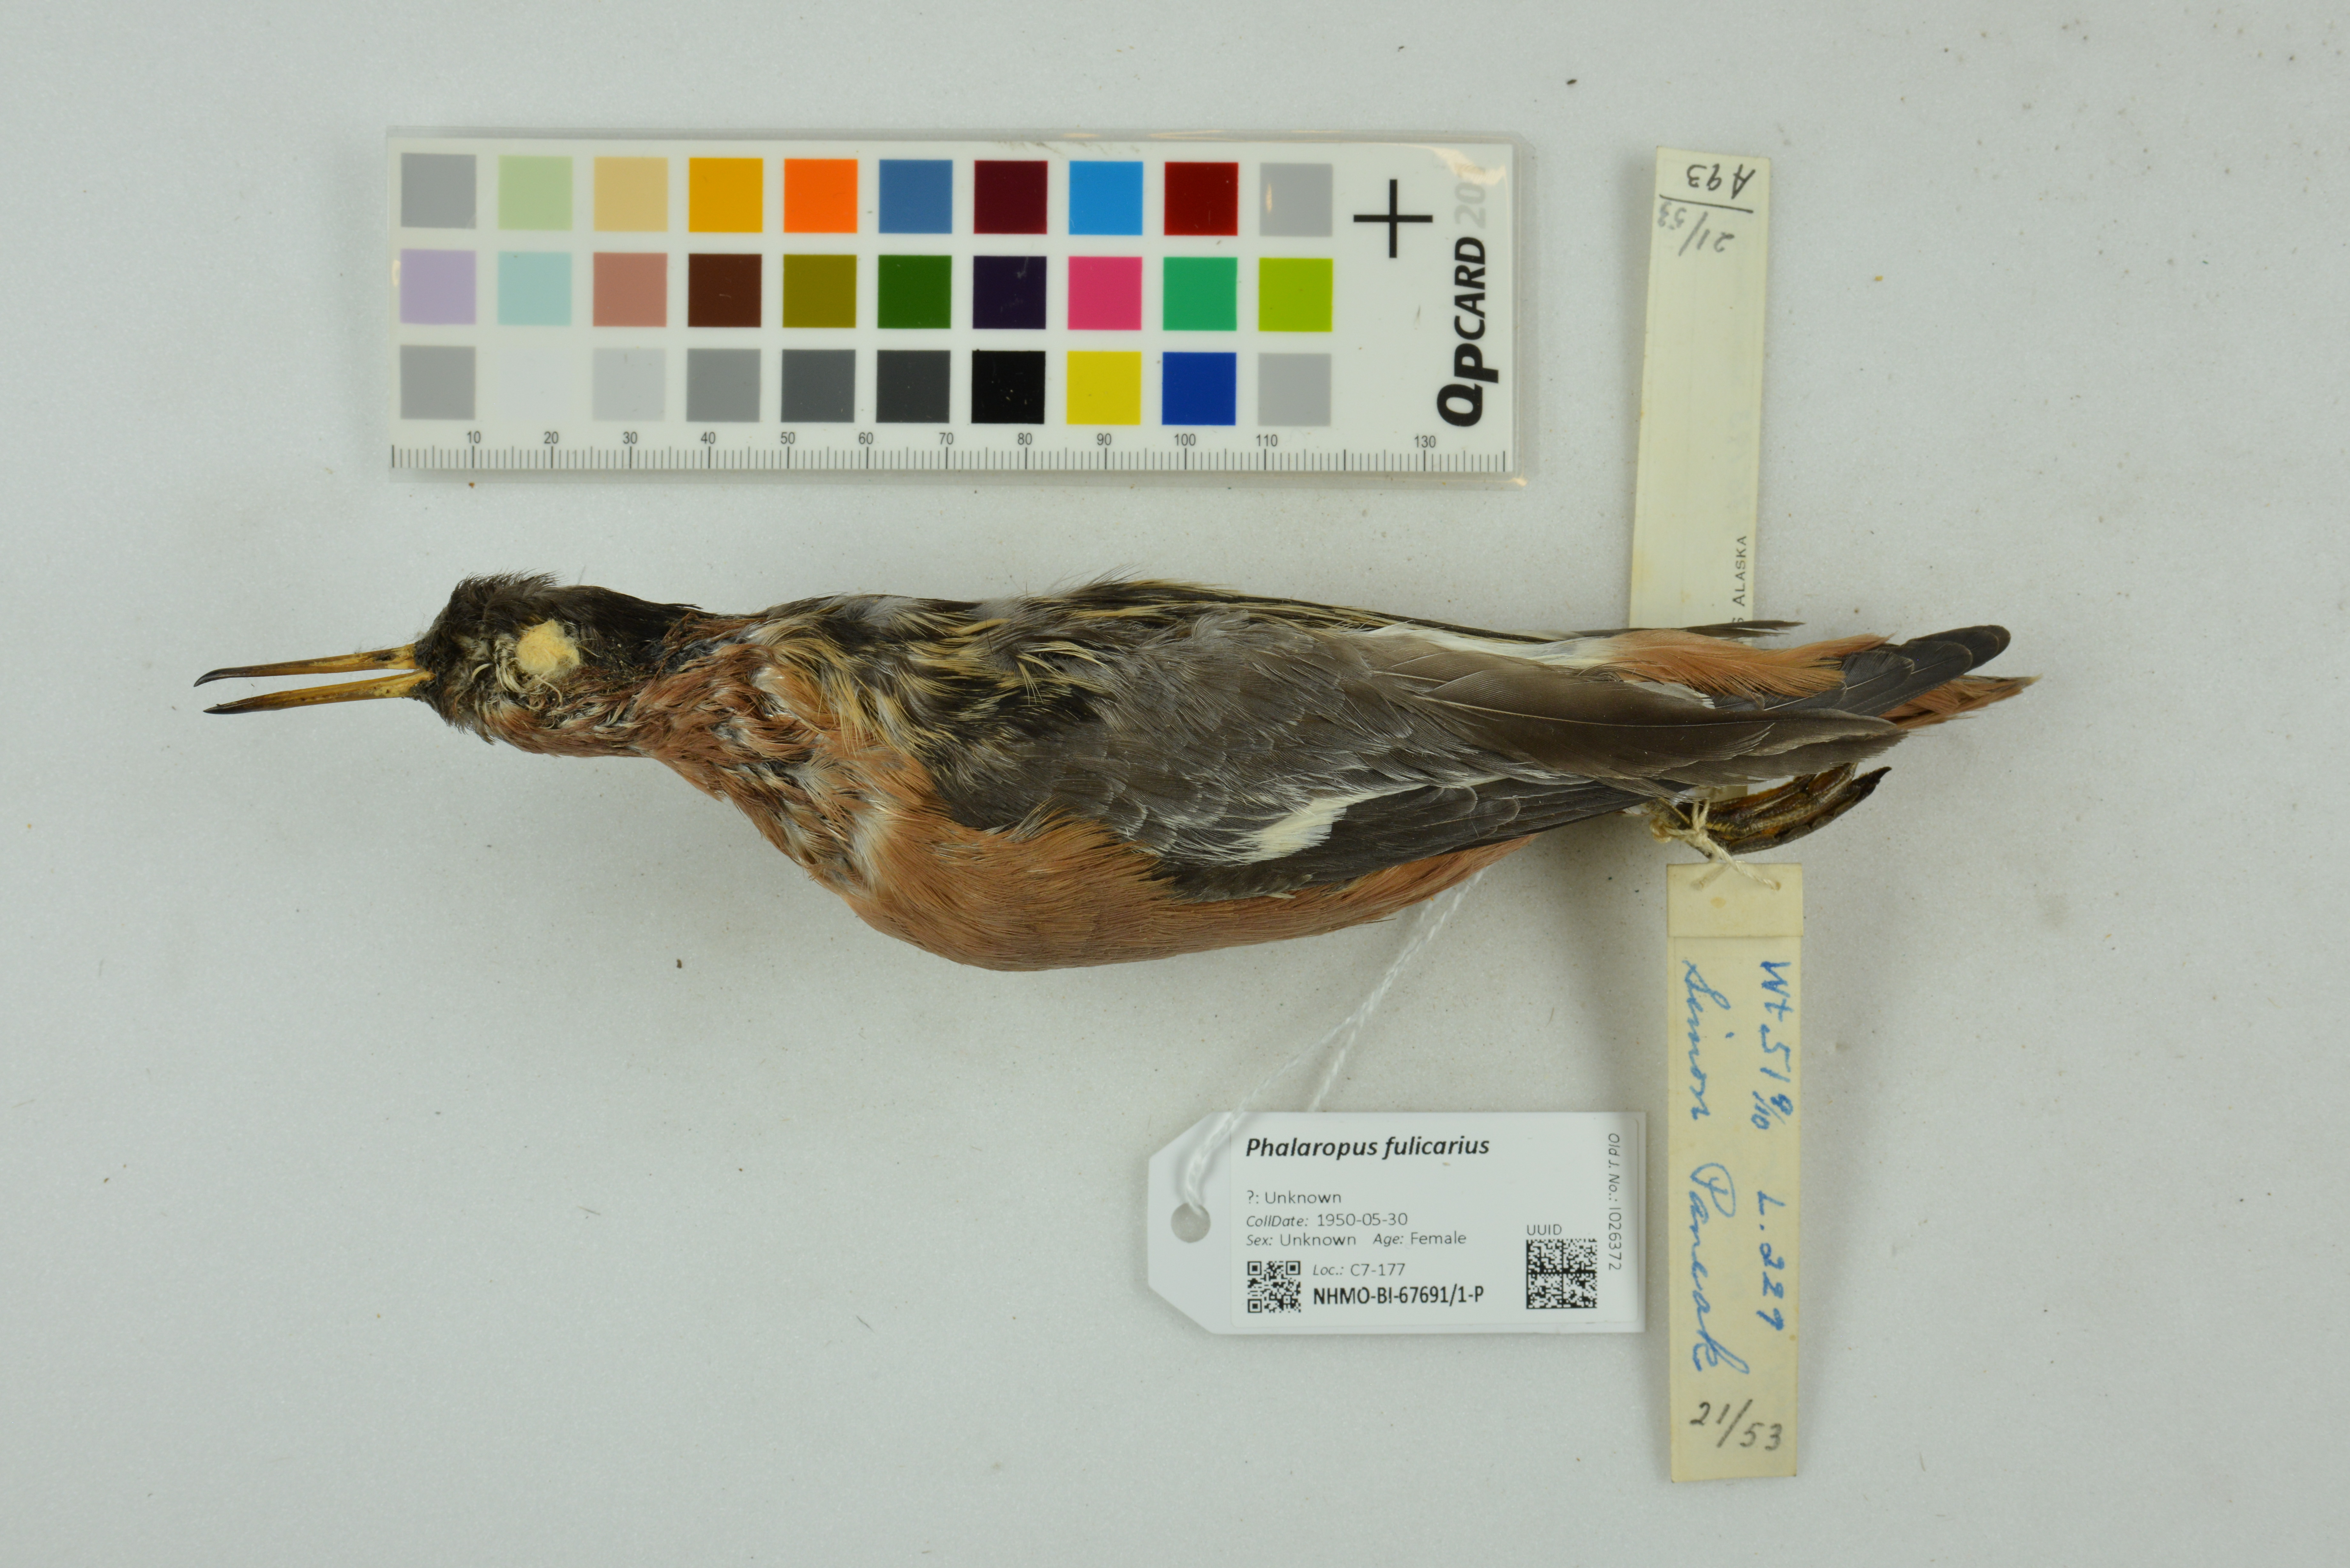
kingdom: Animalia
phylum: Chordata
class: Aves
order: Charadriiformes
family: Scolopacidae
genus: Phalaropus
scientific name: Phalaropus fulicarius
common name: Red phalarope
